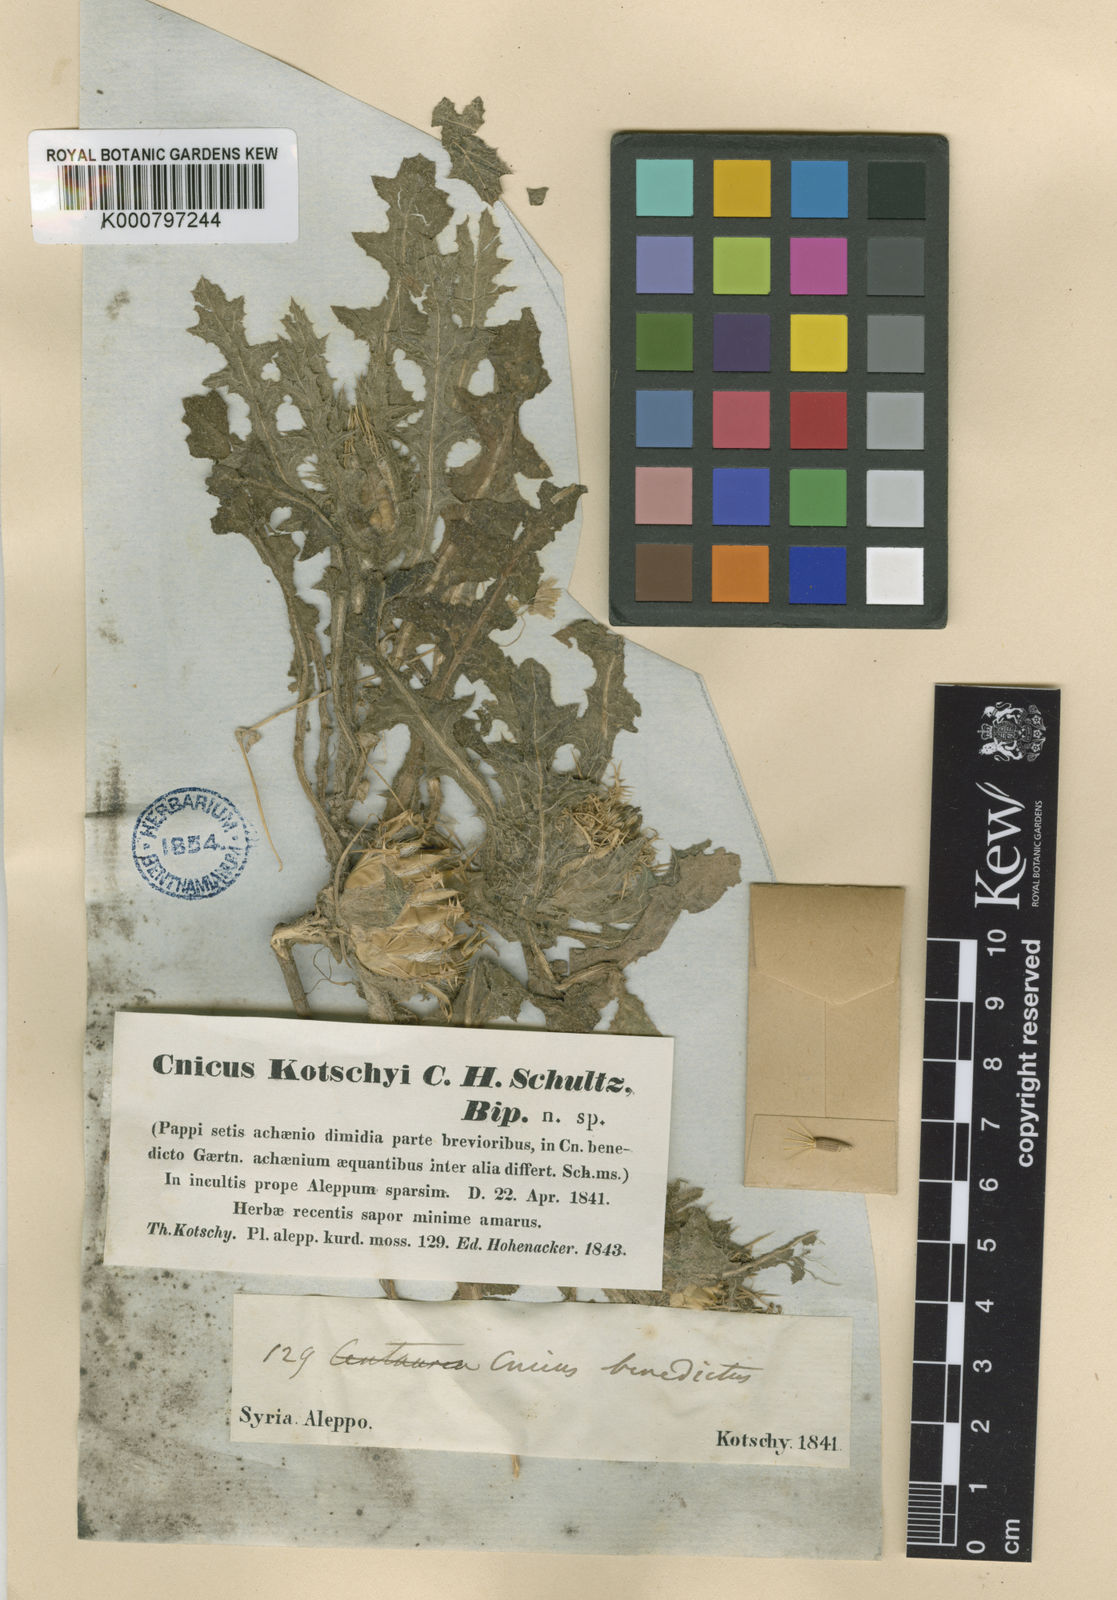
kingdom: Plantae
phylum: Tracheophyta
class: Magnoliopsida
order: Asterales
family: Asteraceae
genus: Centaurea
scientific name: Centaurea benedicta
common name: Blessed thistle
